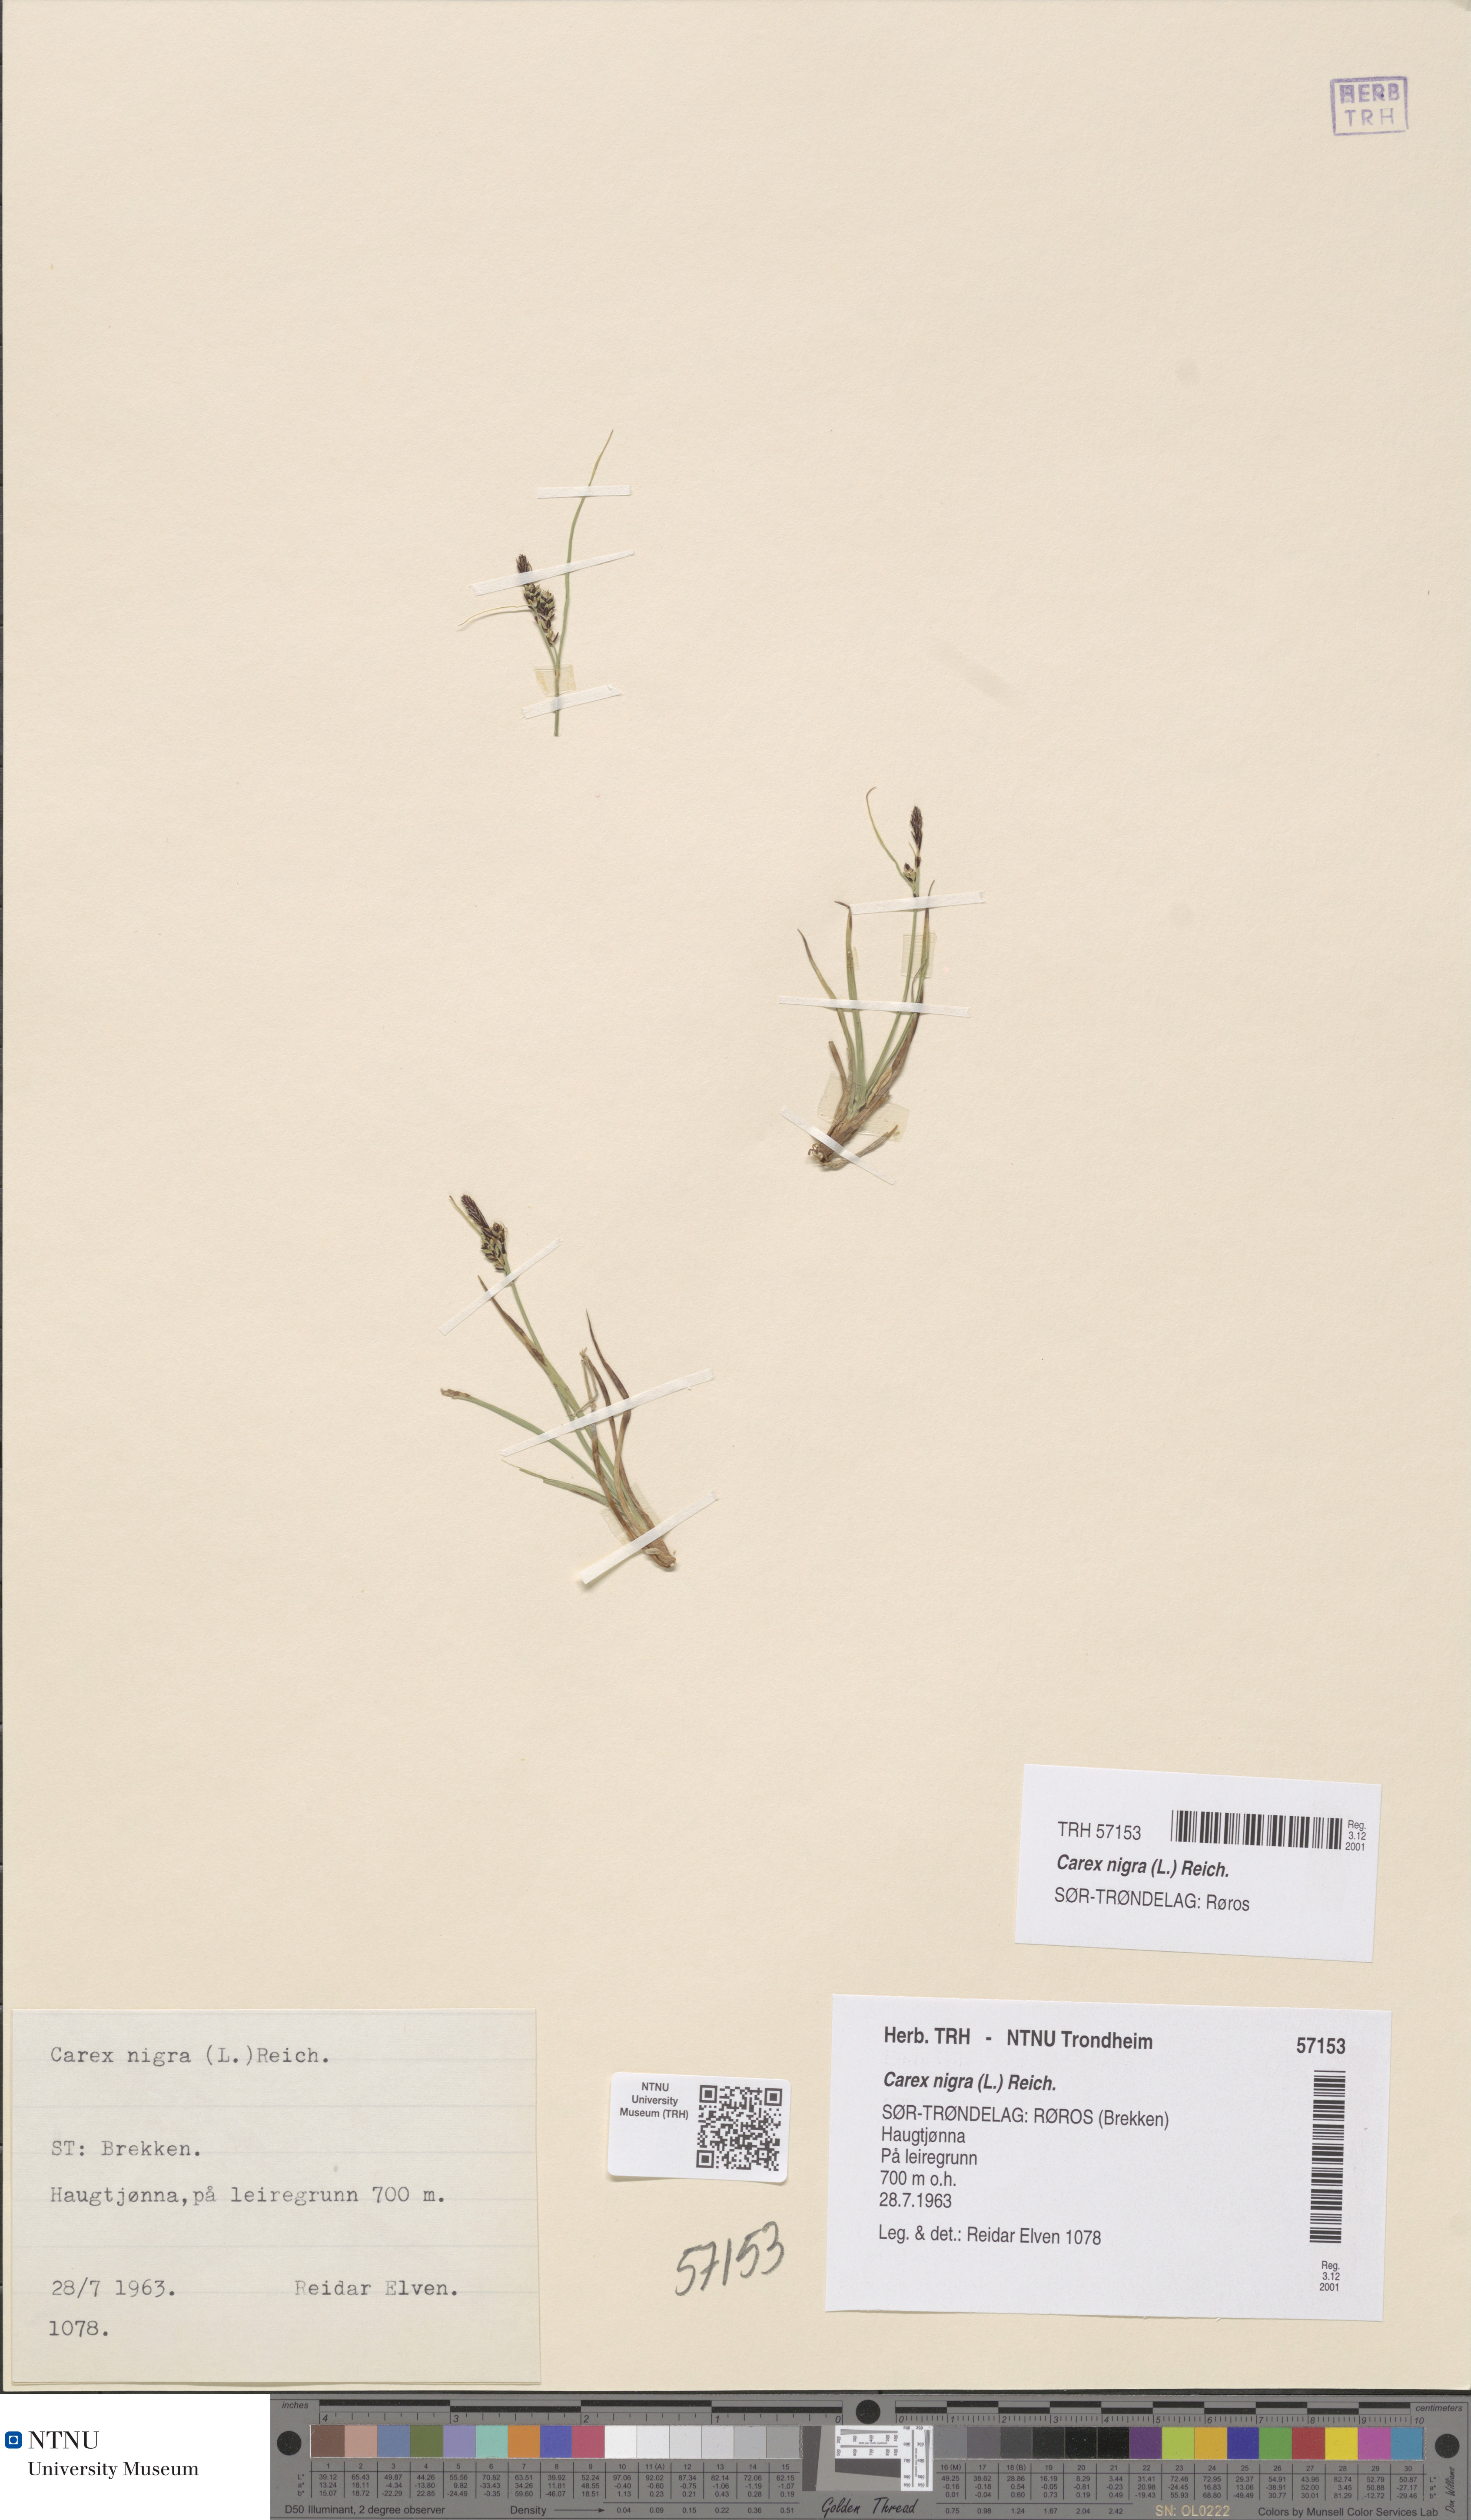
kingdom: Plantae
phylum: Tracheophyta
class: Liliopsida
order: Poales
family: Cyperaceae
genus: Carex
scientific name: Carex nigra
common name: Common sedge
